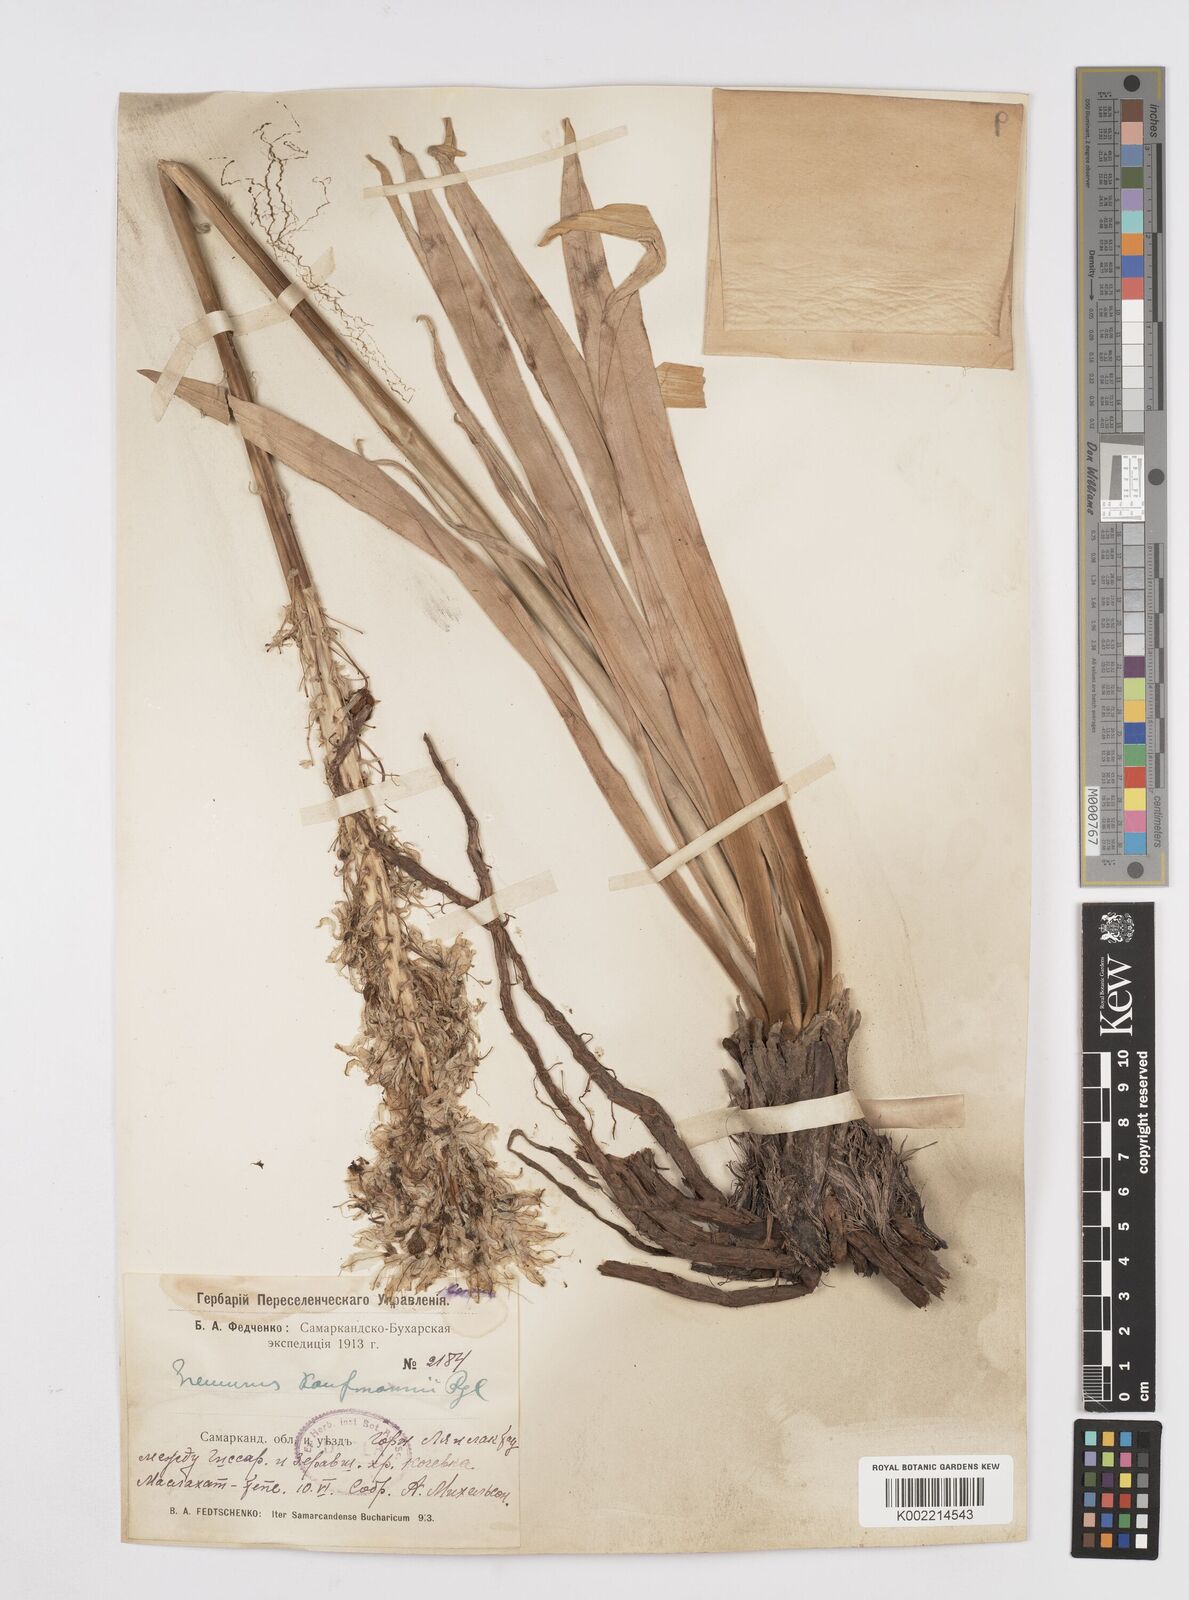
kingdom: Plantae
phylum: Tracheophyta
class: Liliopsida
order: Asparagales
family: Asphodelaceae
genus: Eremurus
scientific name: Eremurus kaufmannii
